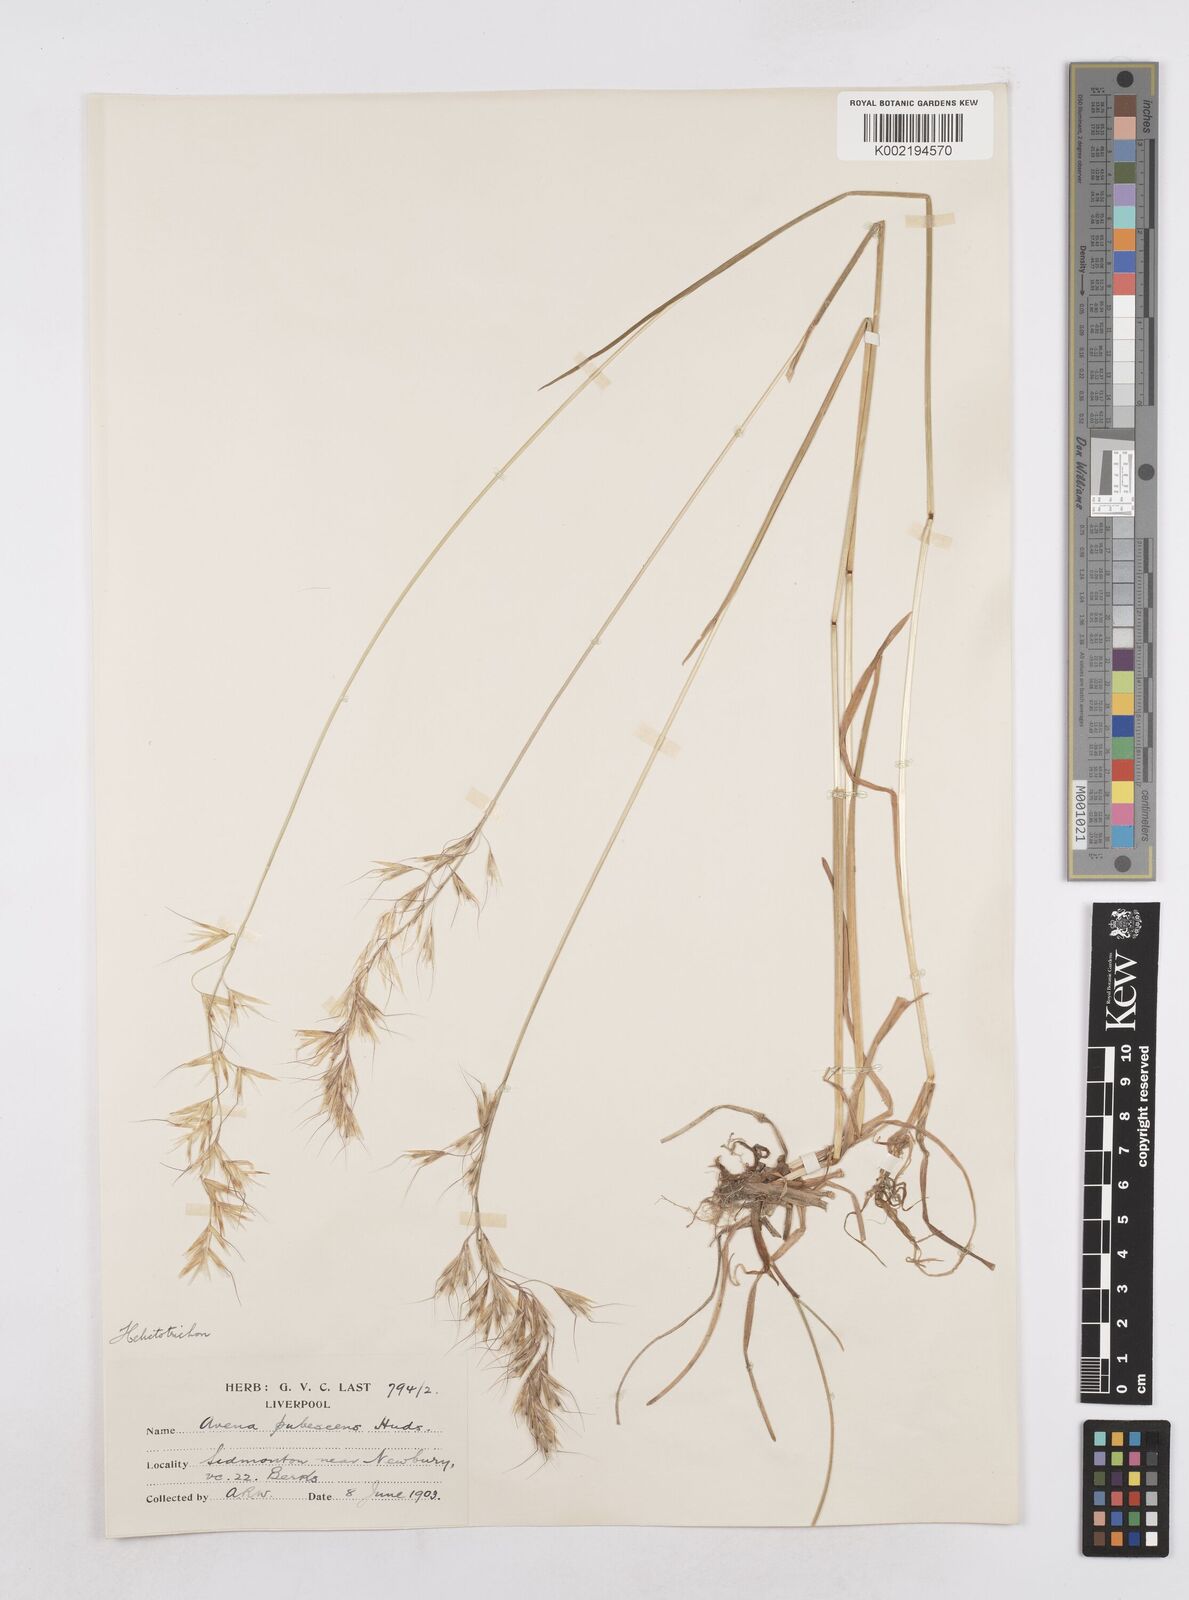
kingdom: Plantae
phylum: Tracheophyta
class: Liliopsida
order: Poales
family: Poaceae
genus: Avenula
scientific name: Avenula pubescens
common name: Downy alpine oatgrass
